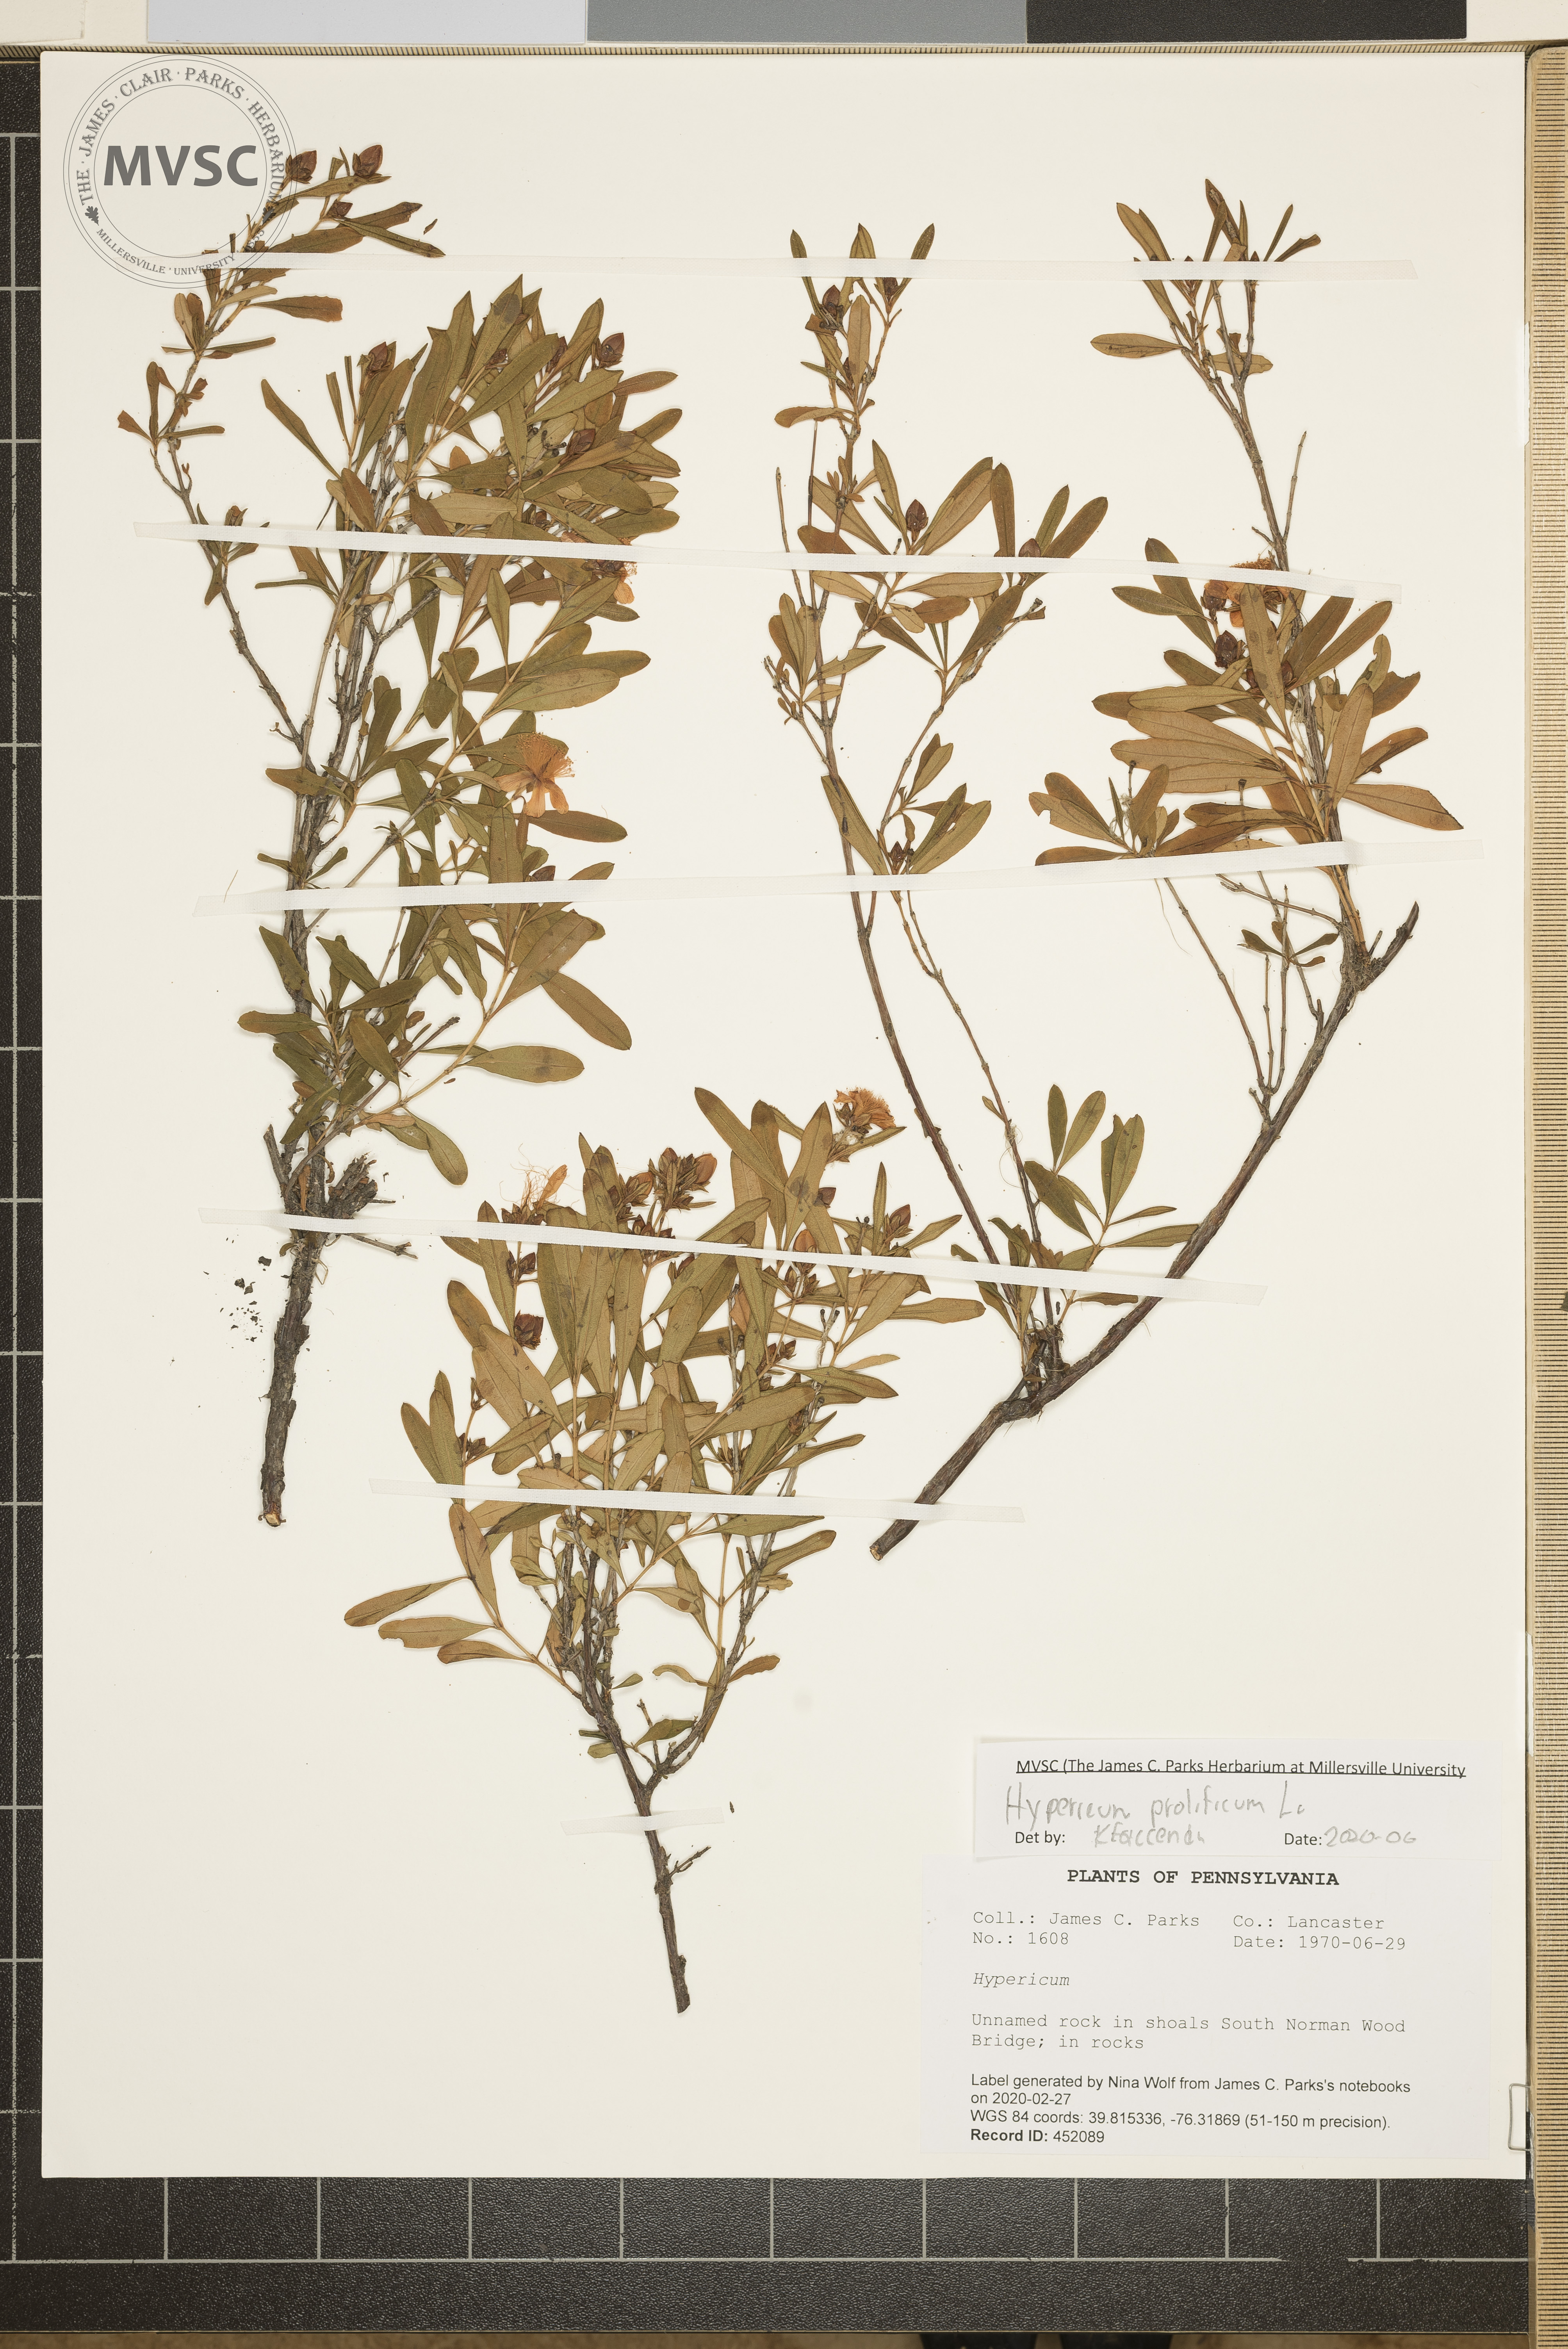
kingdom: Plantae
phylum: Tracheophyta
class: Magnoliopsida
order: Malpighiales
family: Hypericaceae
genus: Hypericum
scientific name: Hypericum prolificum
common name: Shrubby st. john's-wort
